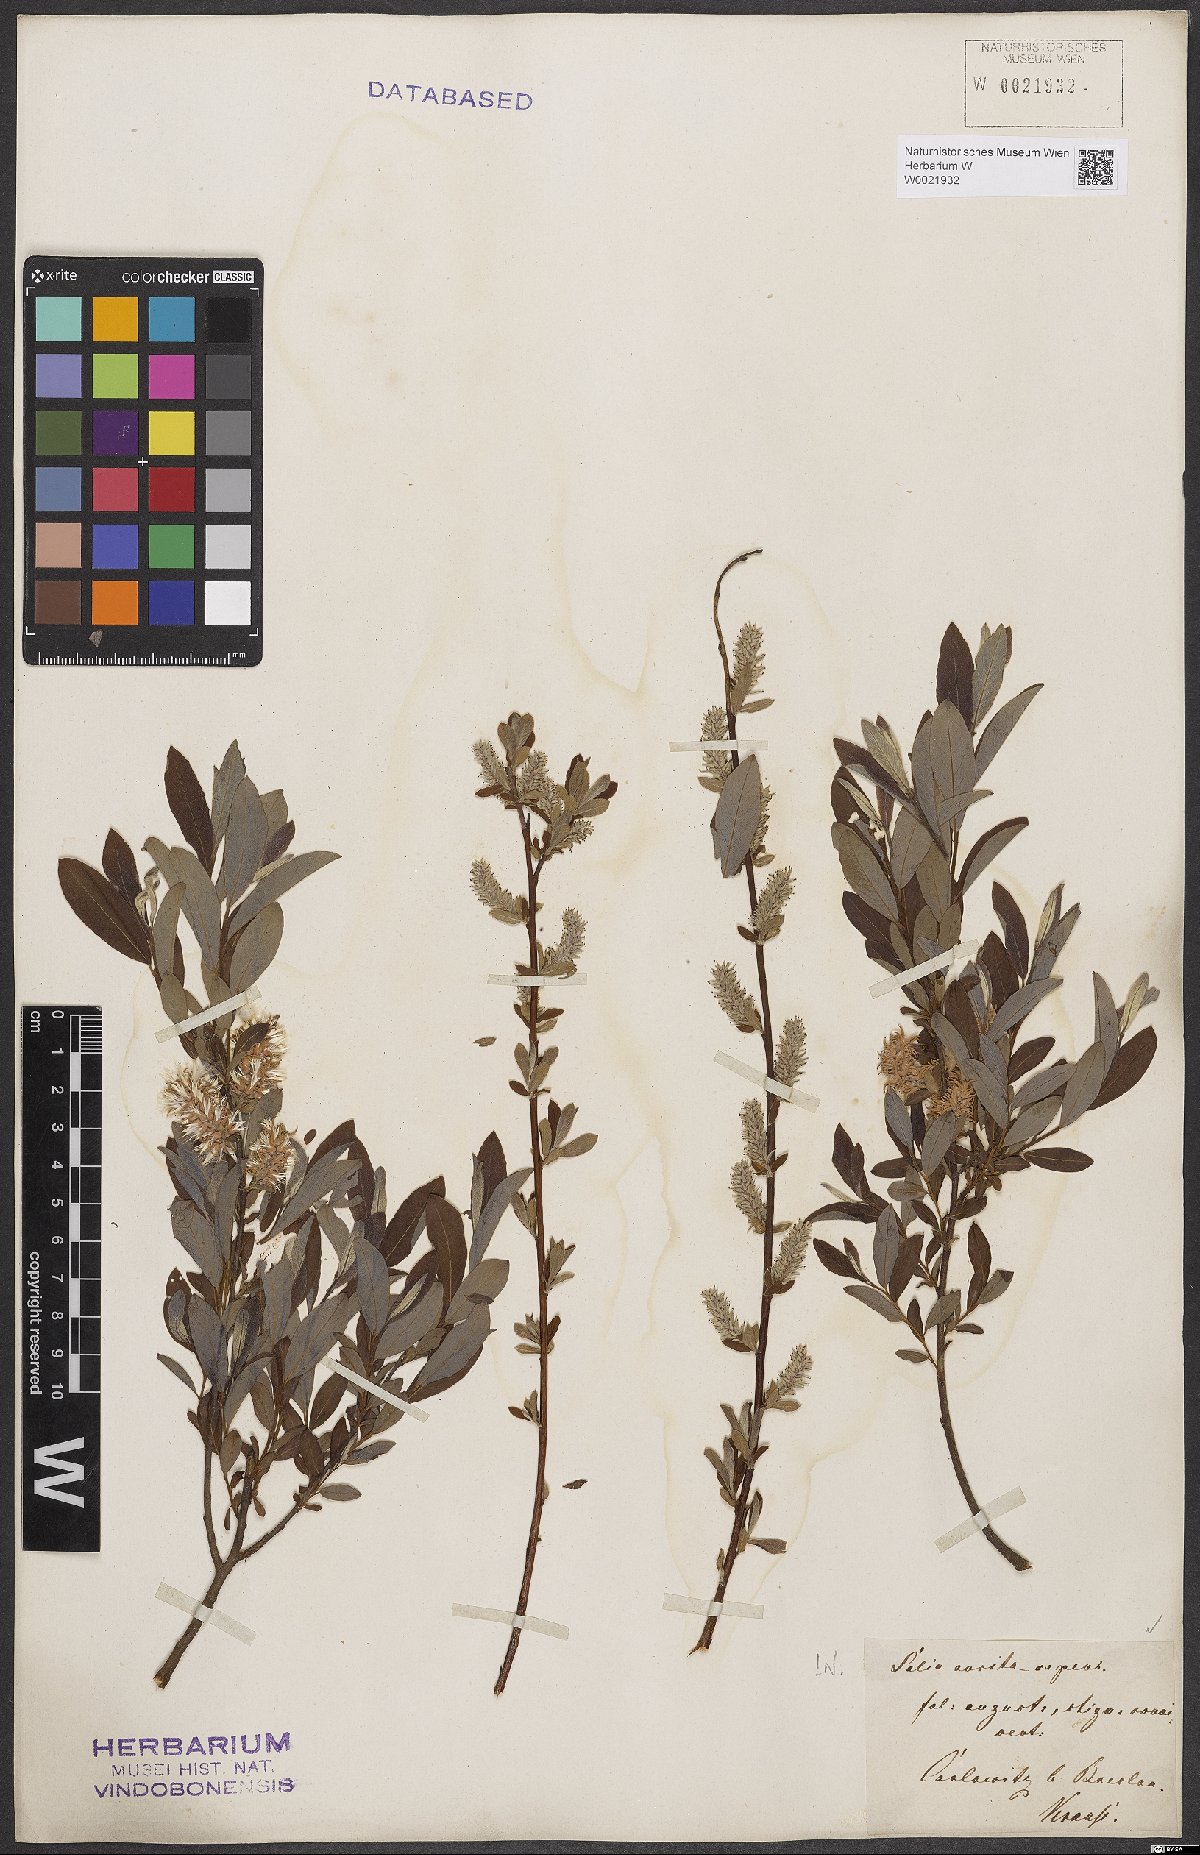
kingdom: Plantae
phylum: Tracheophyta
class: Magnoliopsida
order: Malpighiales
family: Salicaceae
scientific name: Salicaceae
